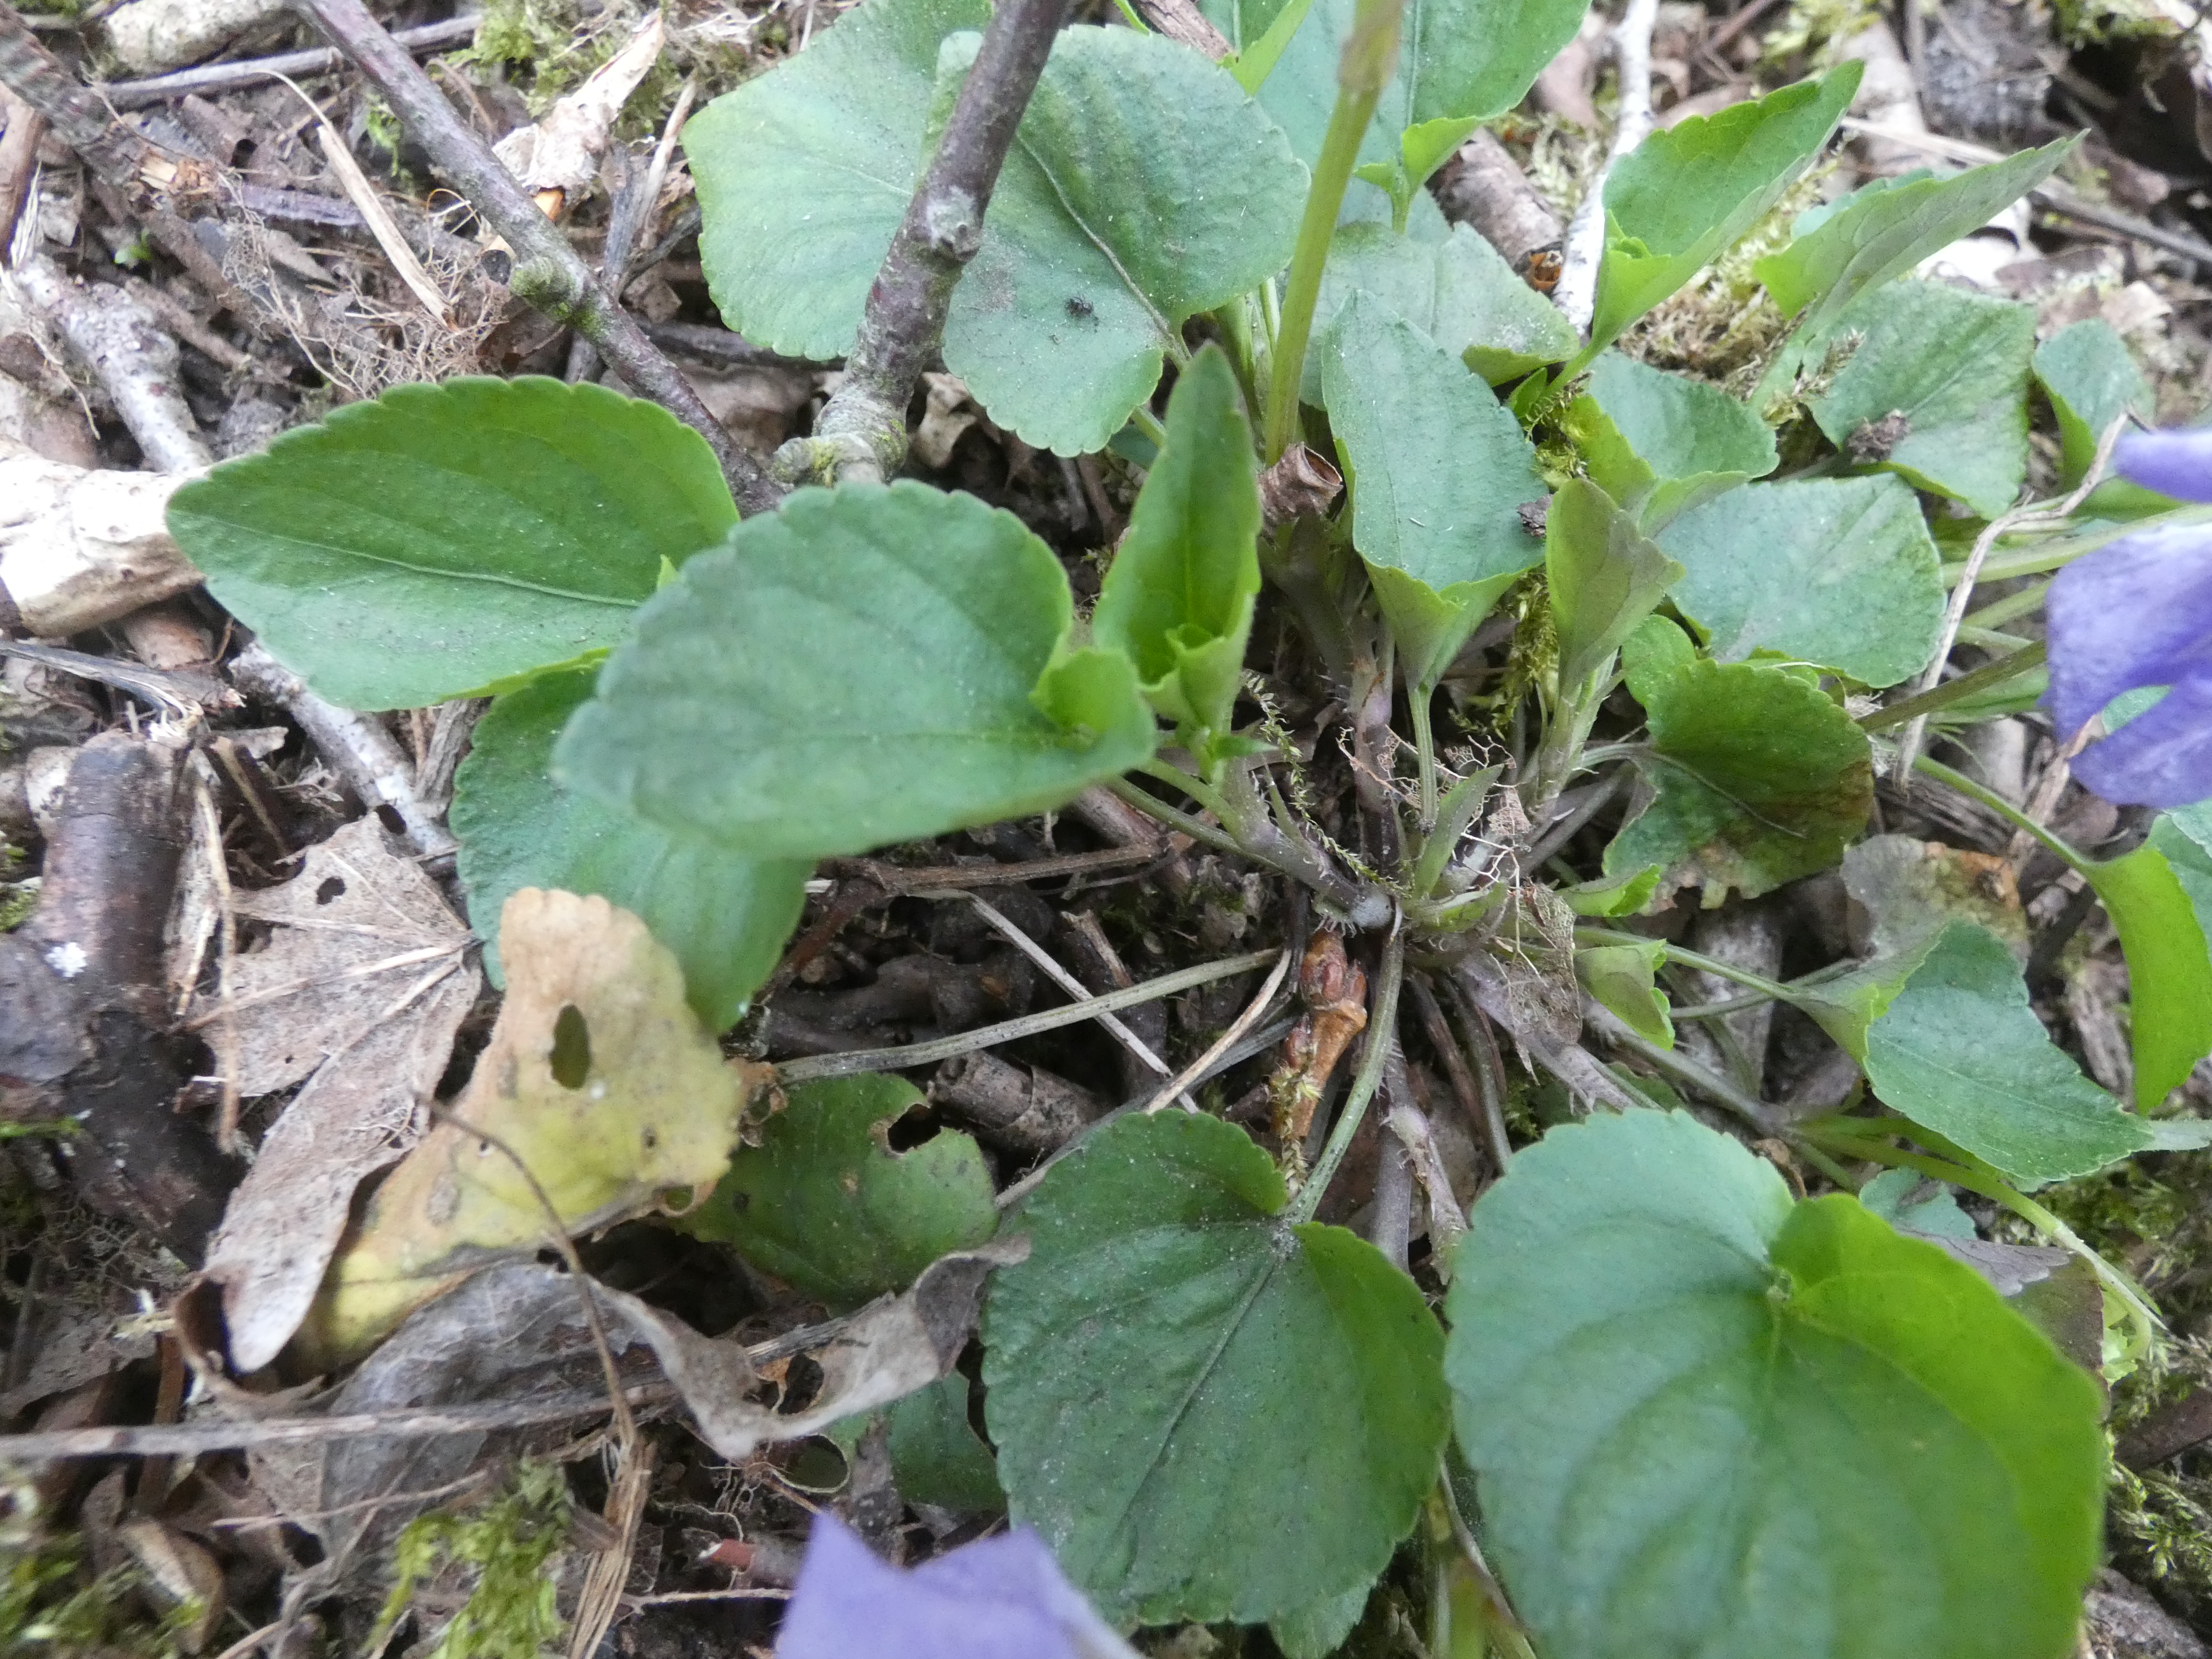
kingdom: Plantae
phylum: Tracheophyta
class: Magnoliopsida
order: Malpighiales
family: Violaceae
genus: Viola
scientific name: Viola riviniana
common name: Krat-viol
